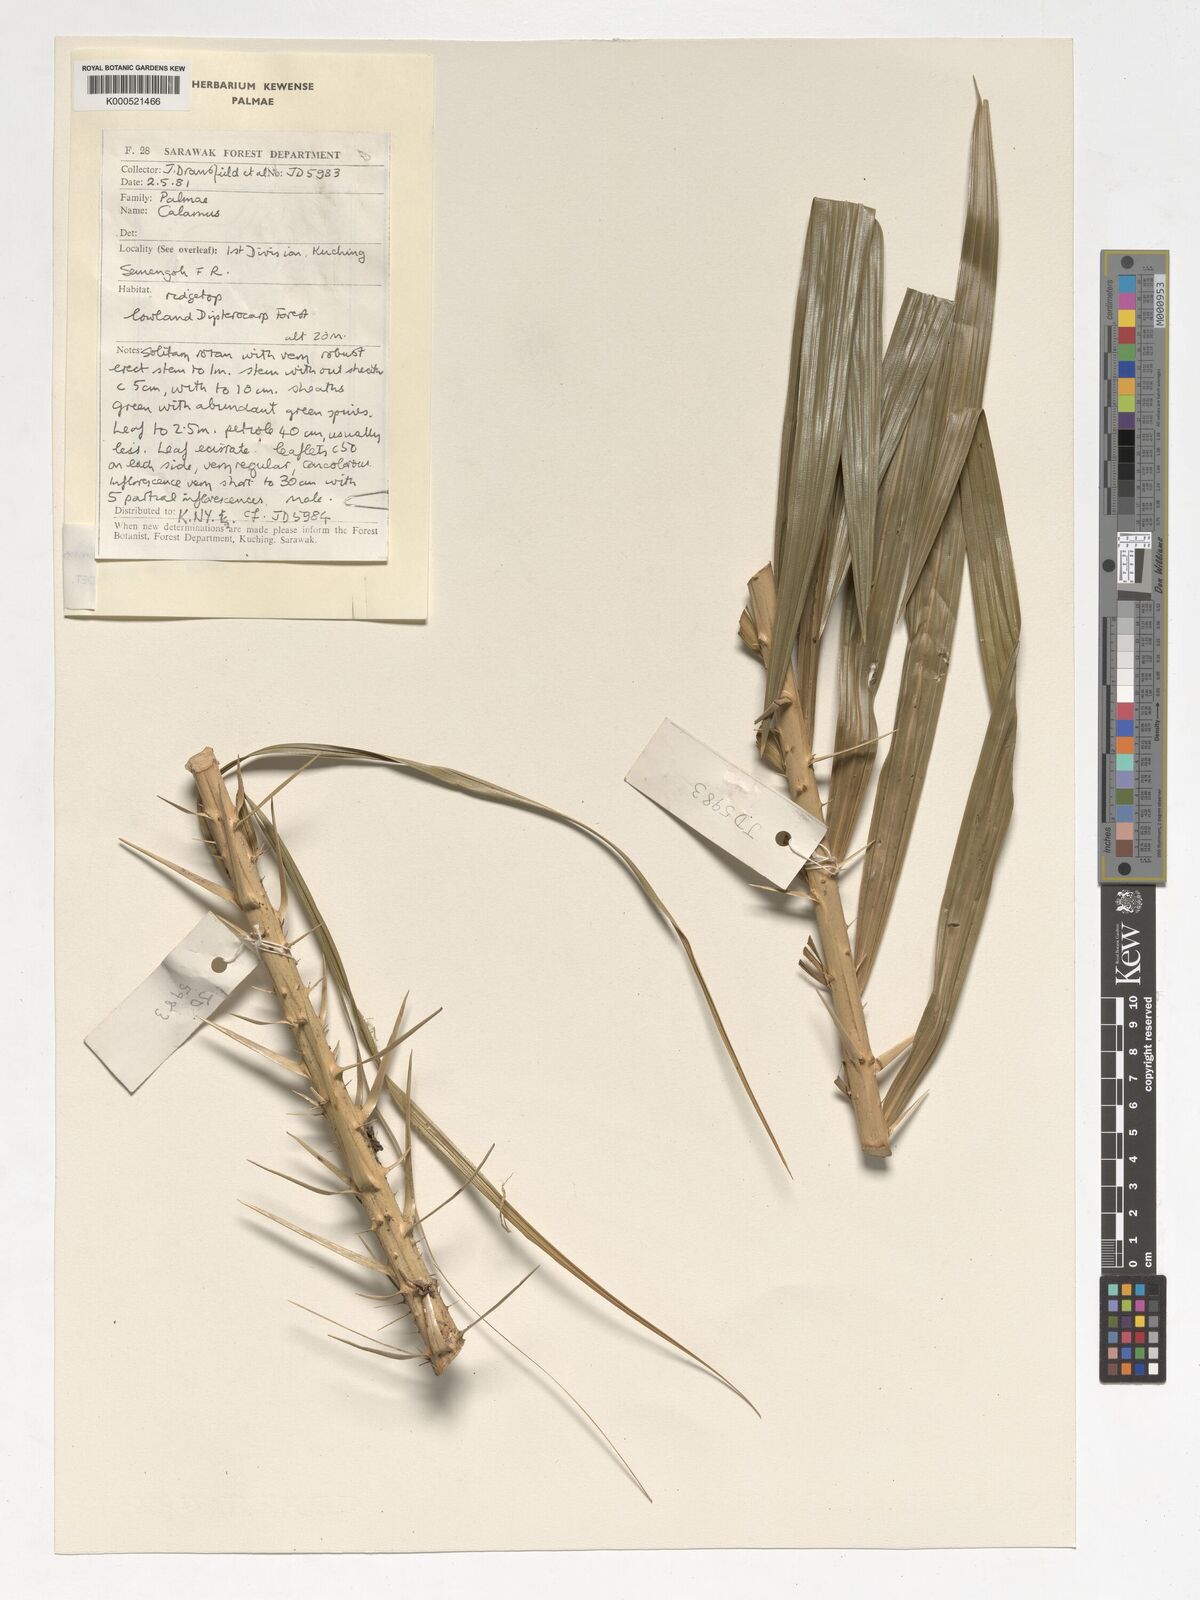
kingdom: Plantae
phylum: Tracheophyta
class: Liliopsida
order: Arecales
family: Arecaceae
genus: Calamus
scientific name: Calamus nanodendron
